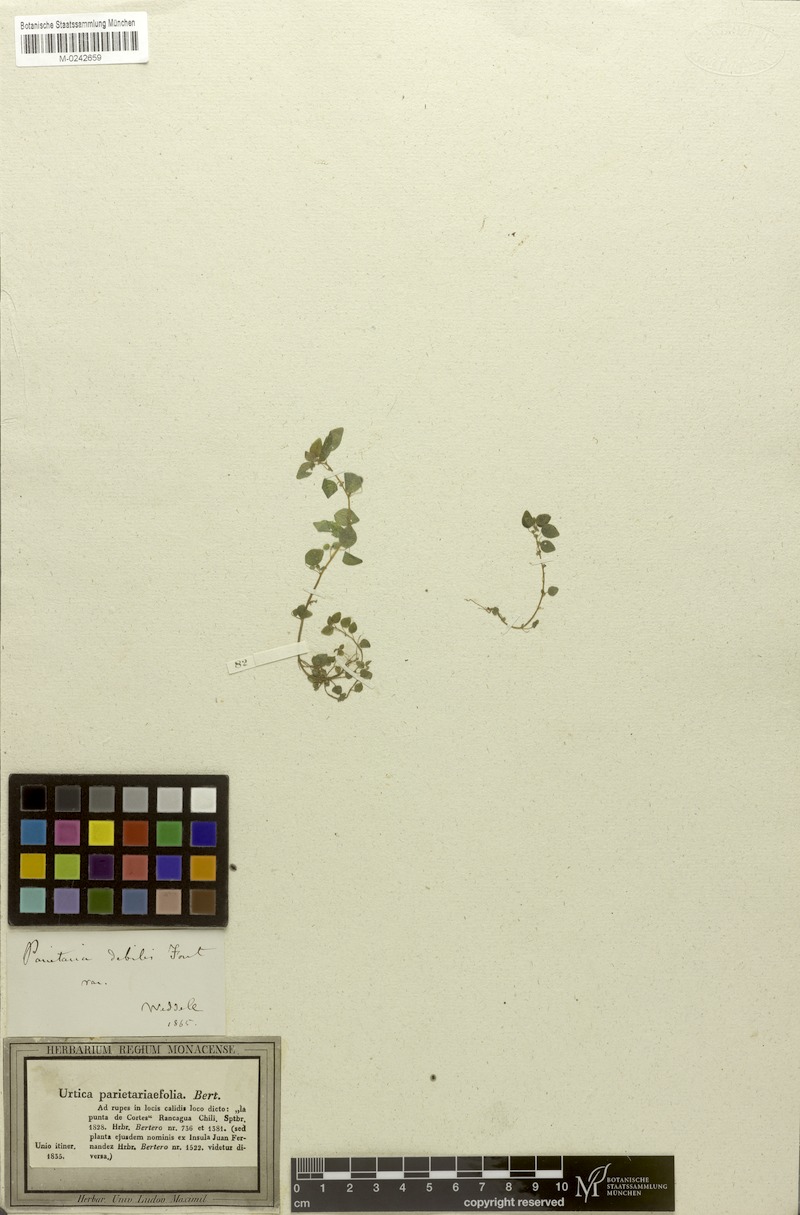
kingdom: Plantae
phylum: Tracheophyta
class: Magnoliopsida
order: Rosales
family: Urticaceae
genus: Parietaria
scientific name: Parietaria debilis
